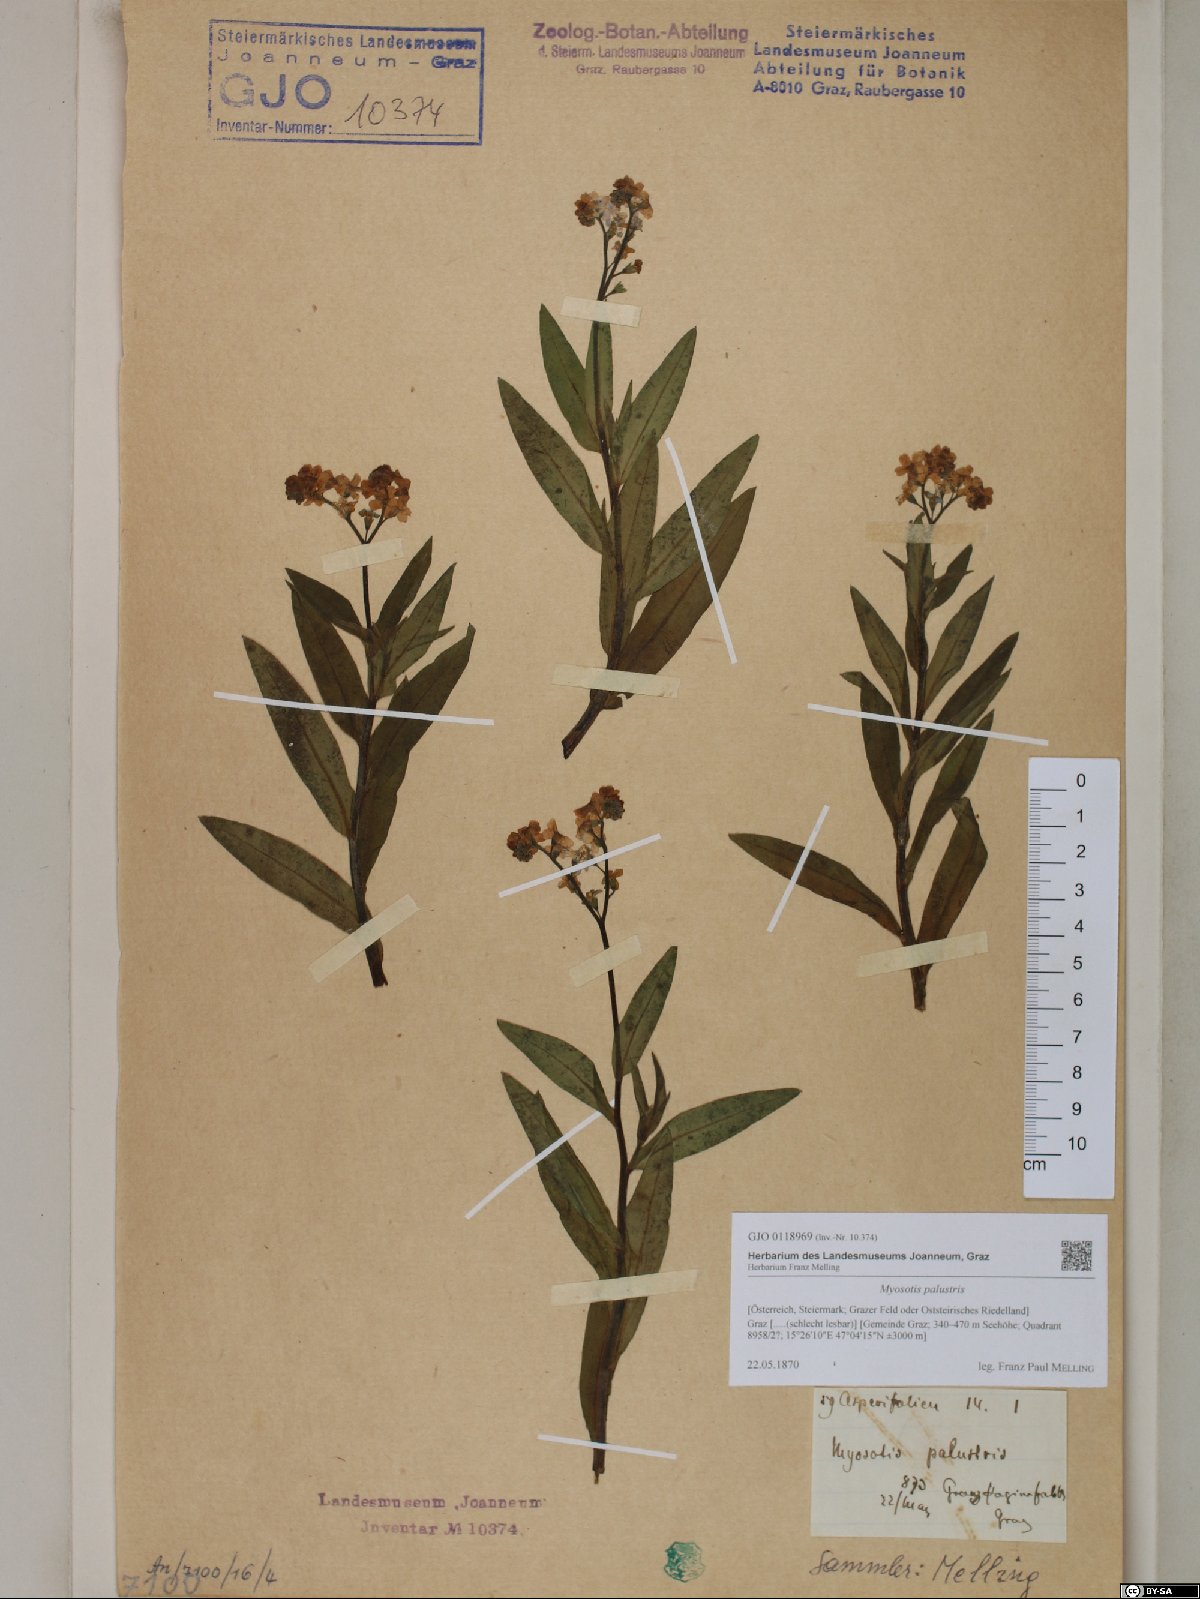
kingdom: Plantae
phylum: Tracheophyta
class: Magnoliopsida
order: Boraginales
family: Boraginaceae
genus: Myosotis
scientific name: Myosotis scorpioides
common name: Water forget-me-not
